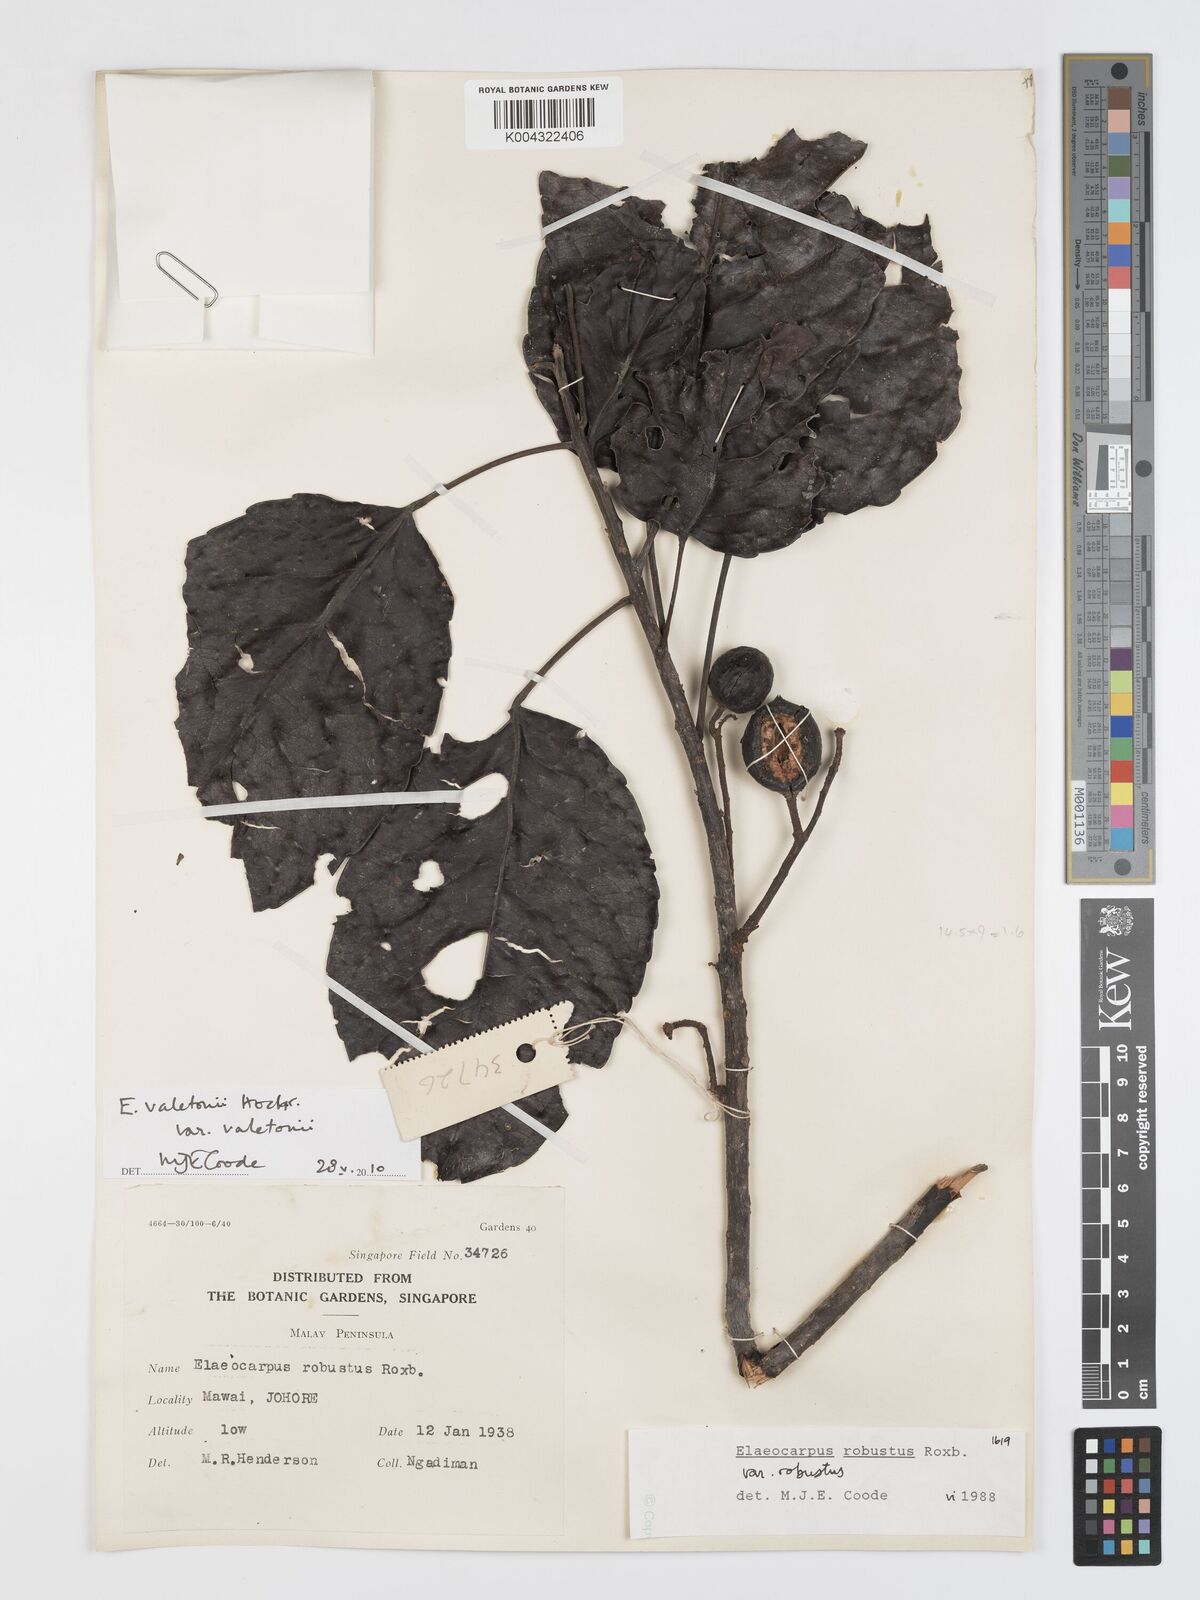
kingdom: Plantae
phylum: Tracheophyta
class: Magnoliopsida
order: Oxalidales
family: Elaeocarpaceae
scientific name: Elaeocarpaceae
